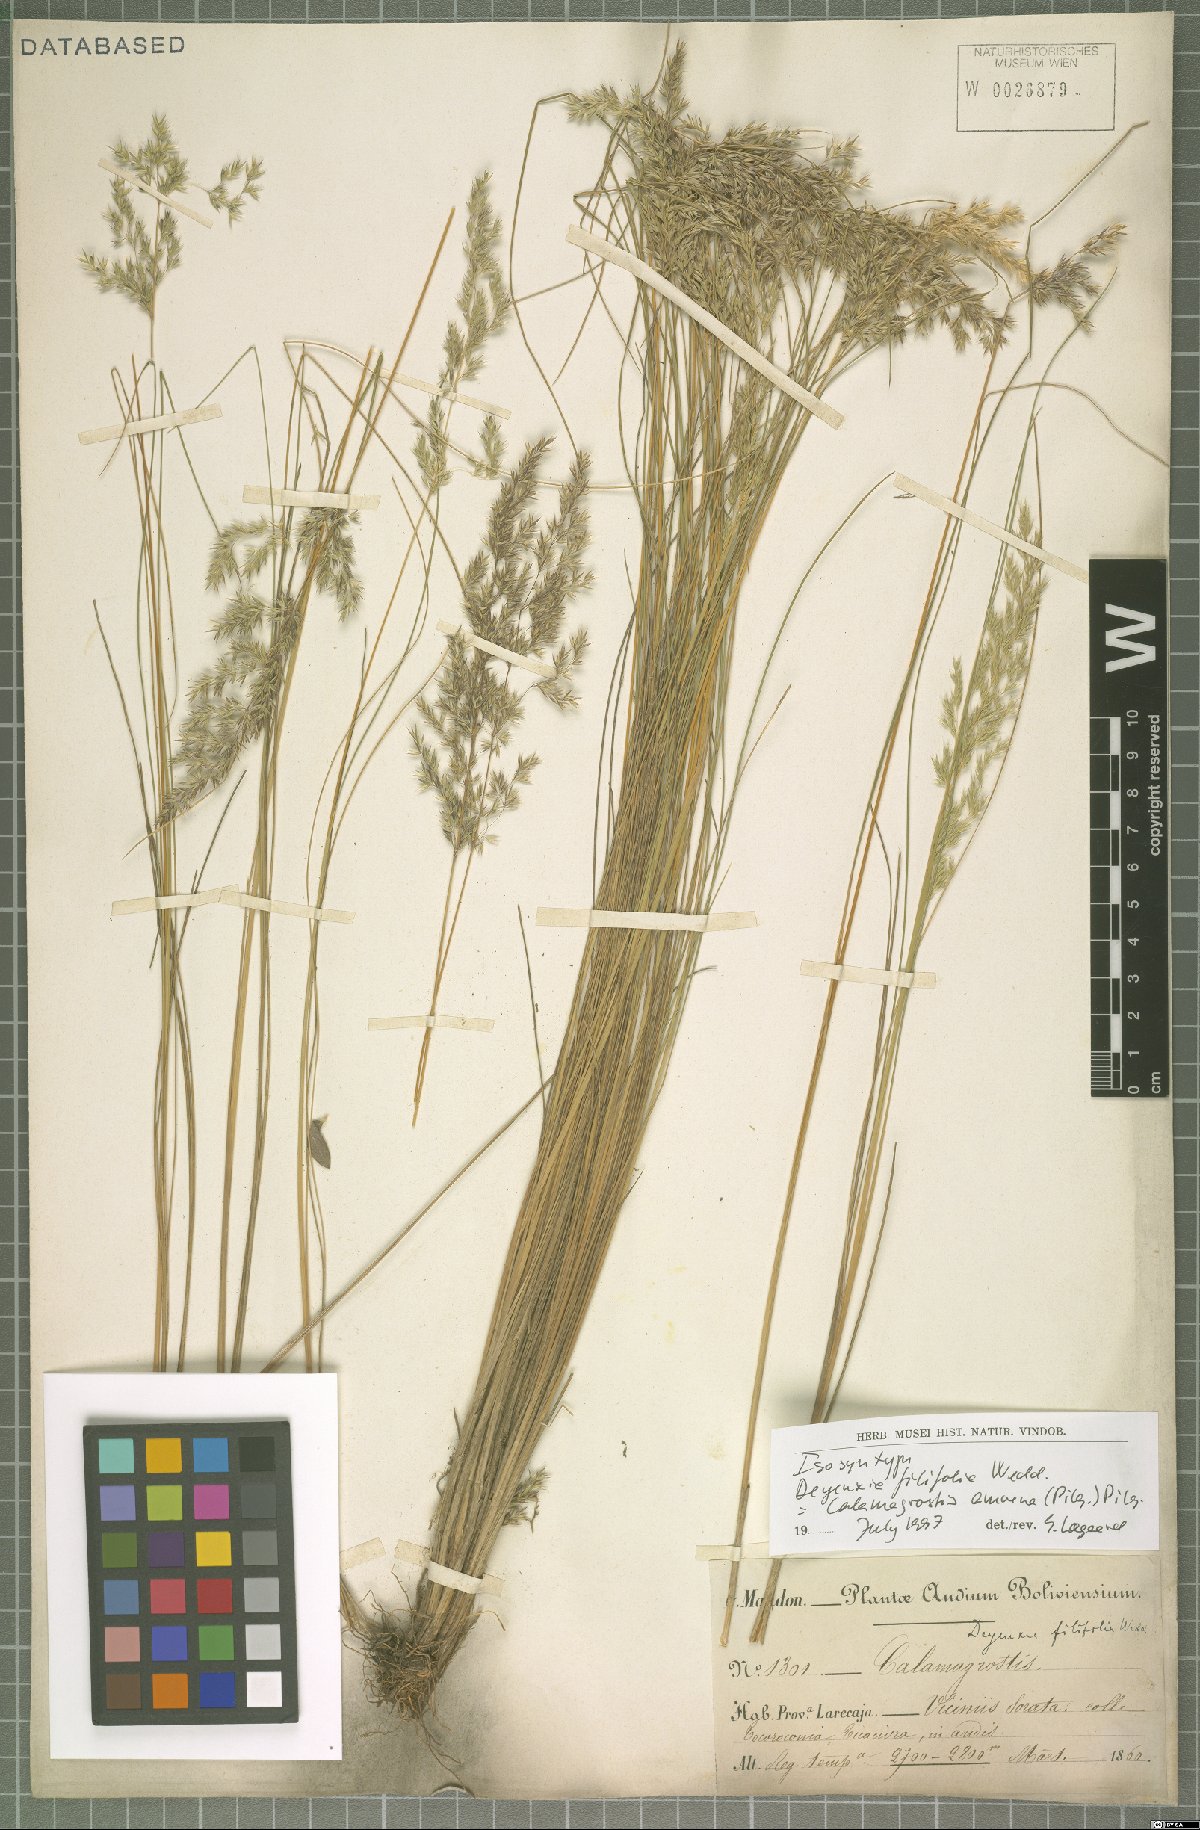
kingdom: Plantae
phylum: Tracheophyta
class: Liliopsida
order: Poales
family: Poaceae
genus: Cinnagrostis
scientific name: Cinnagrostis filifolia
